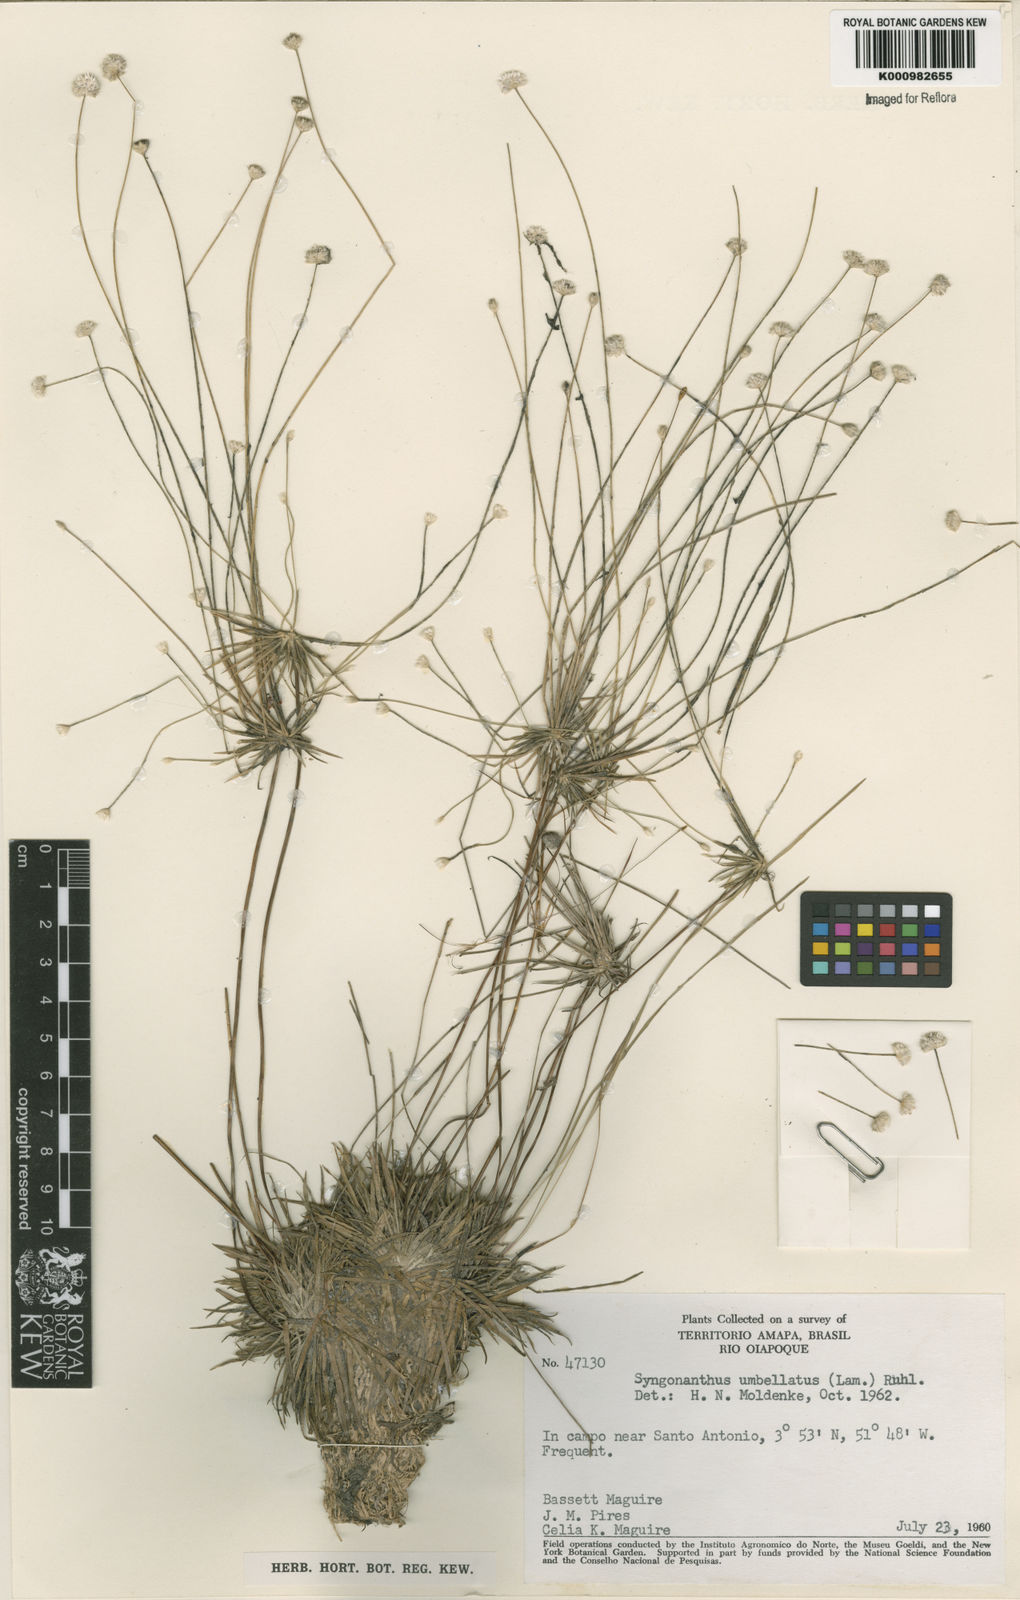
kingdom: Plantae
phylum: Tracheophyta
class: Liliopsida
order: Poales
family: Eriocaulaceae
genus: Syngonanthus
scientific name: Syngonanthus umbellatus
